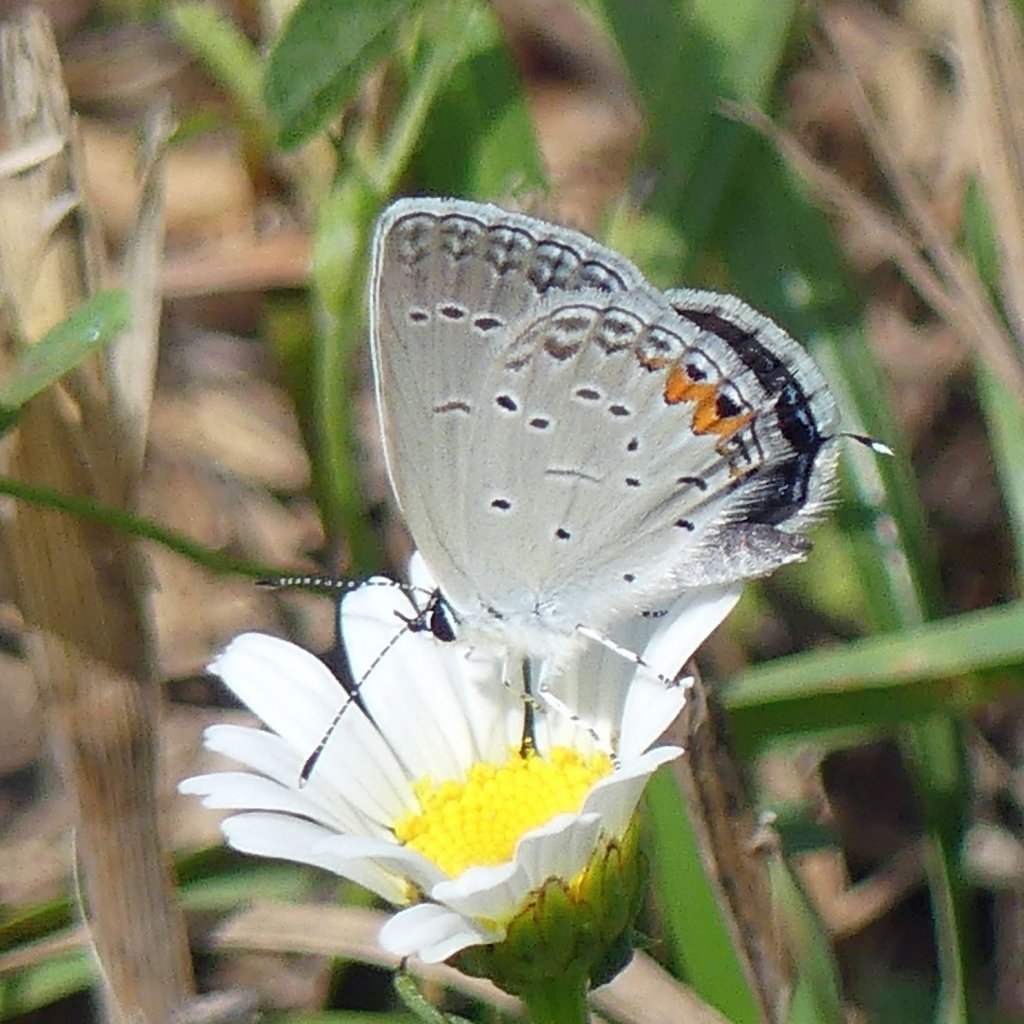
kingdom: Animalia
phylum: Arthropoda
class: Insecta
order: Lepidoptera
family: Lycaenidae
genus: Elkalyce
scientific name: Elkalyce comyntas
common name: Eastern Tailed-Blue
